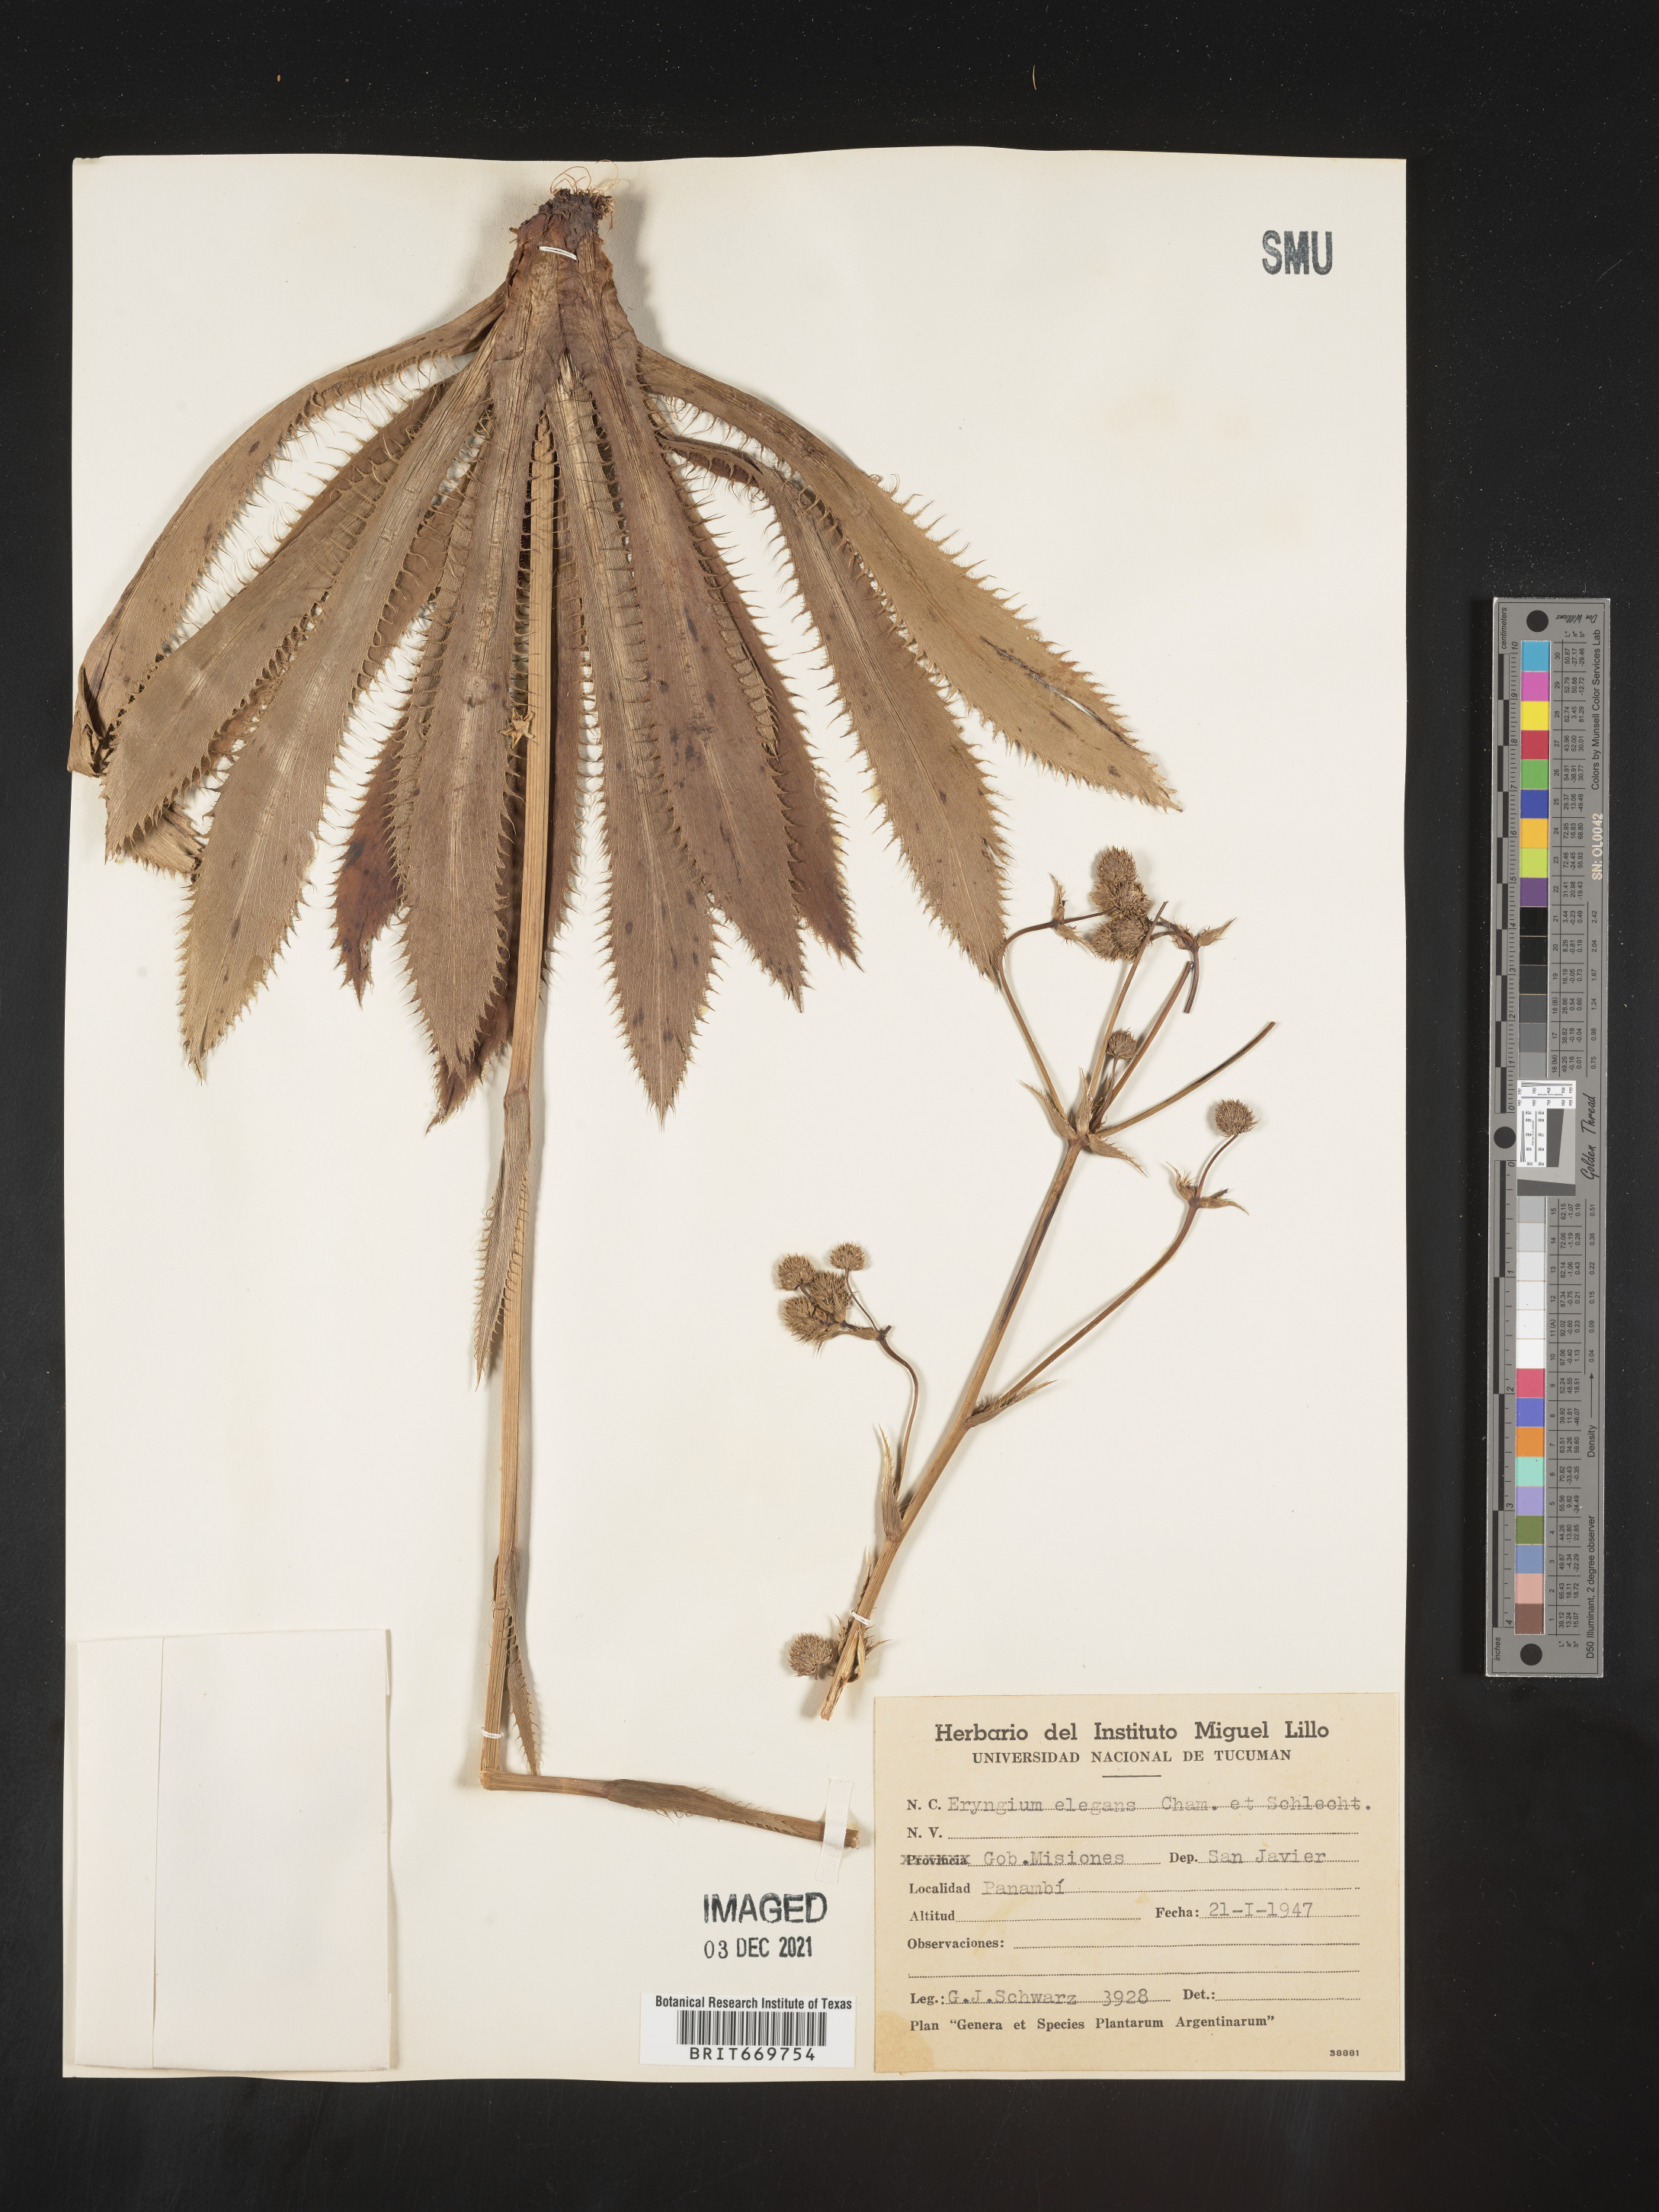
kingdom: Plantae
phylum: Tracheophyta
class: Magnoliopsida
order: Apiales
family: Apiaceae
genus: Eryngium
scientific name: Eryngium
